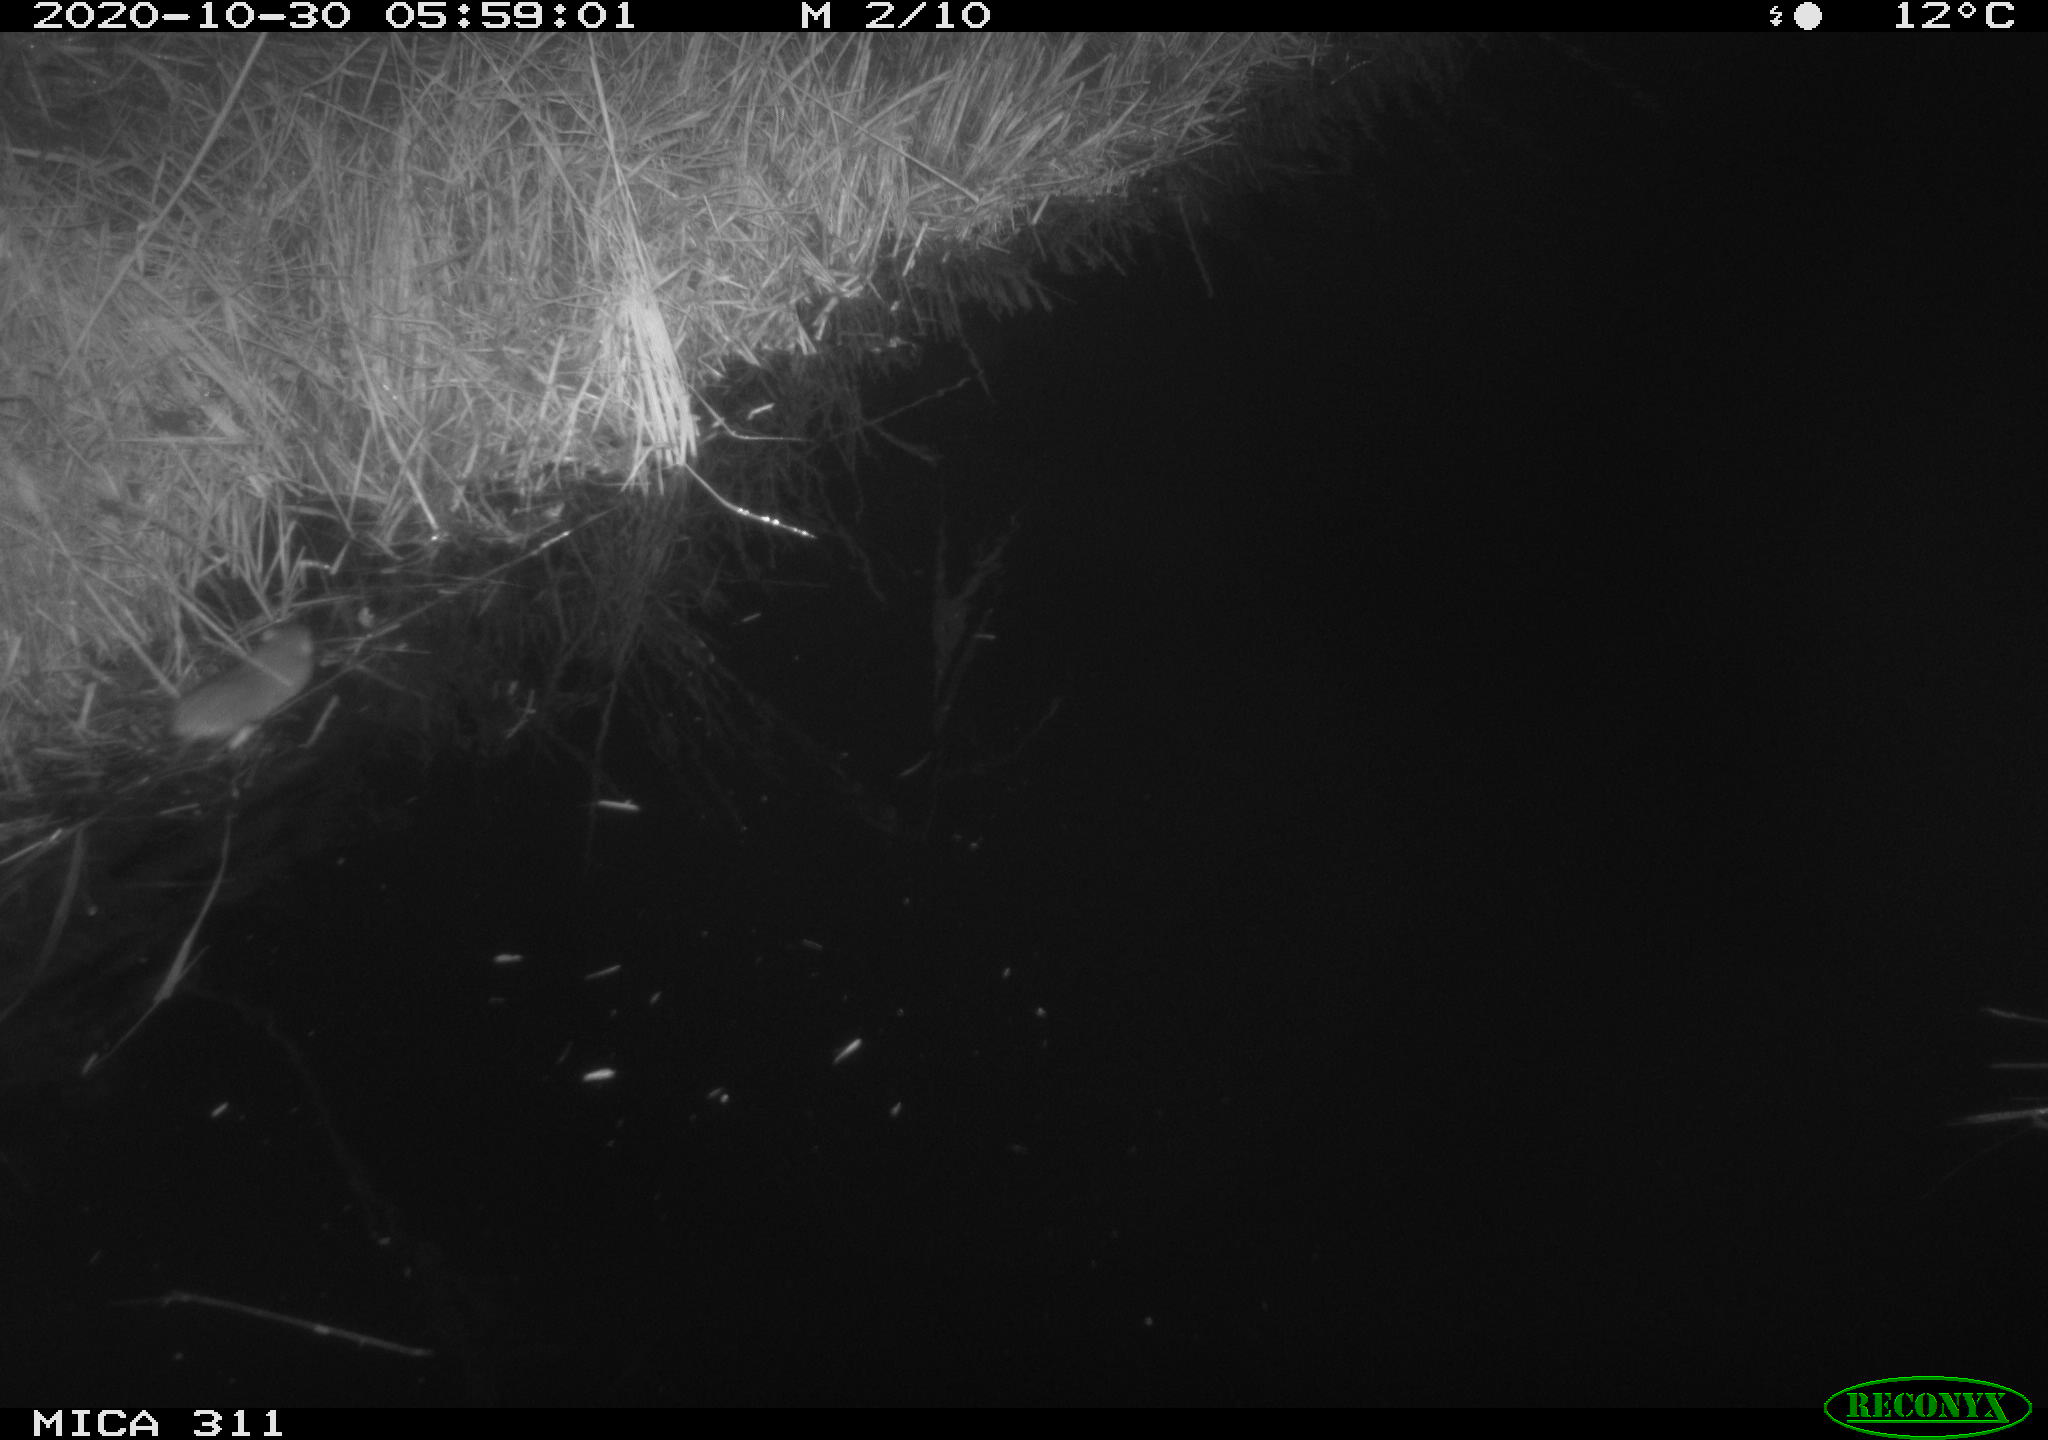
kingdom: Animalia
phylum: Chordata
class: Mammalia
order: Rodentia
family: Muridae
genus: Rattus
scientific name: Rattus norvegicus
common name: Brown rat
